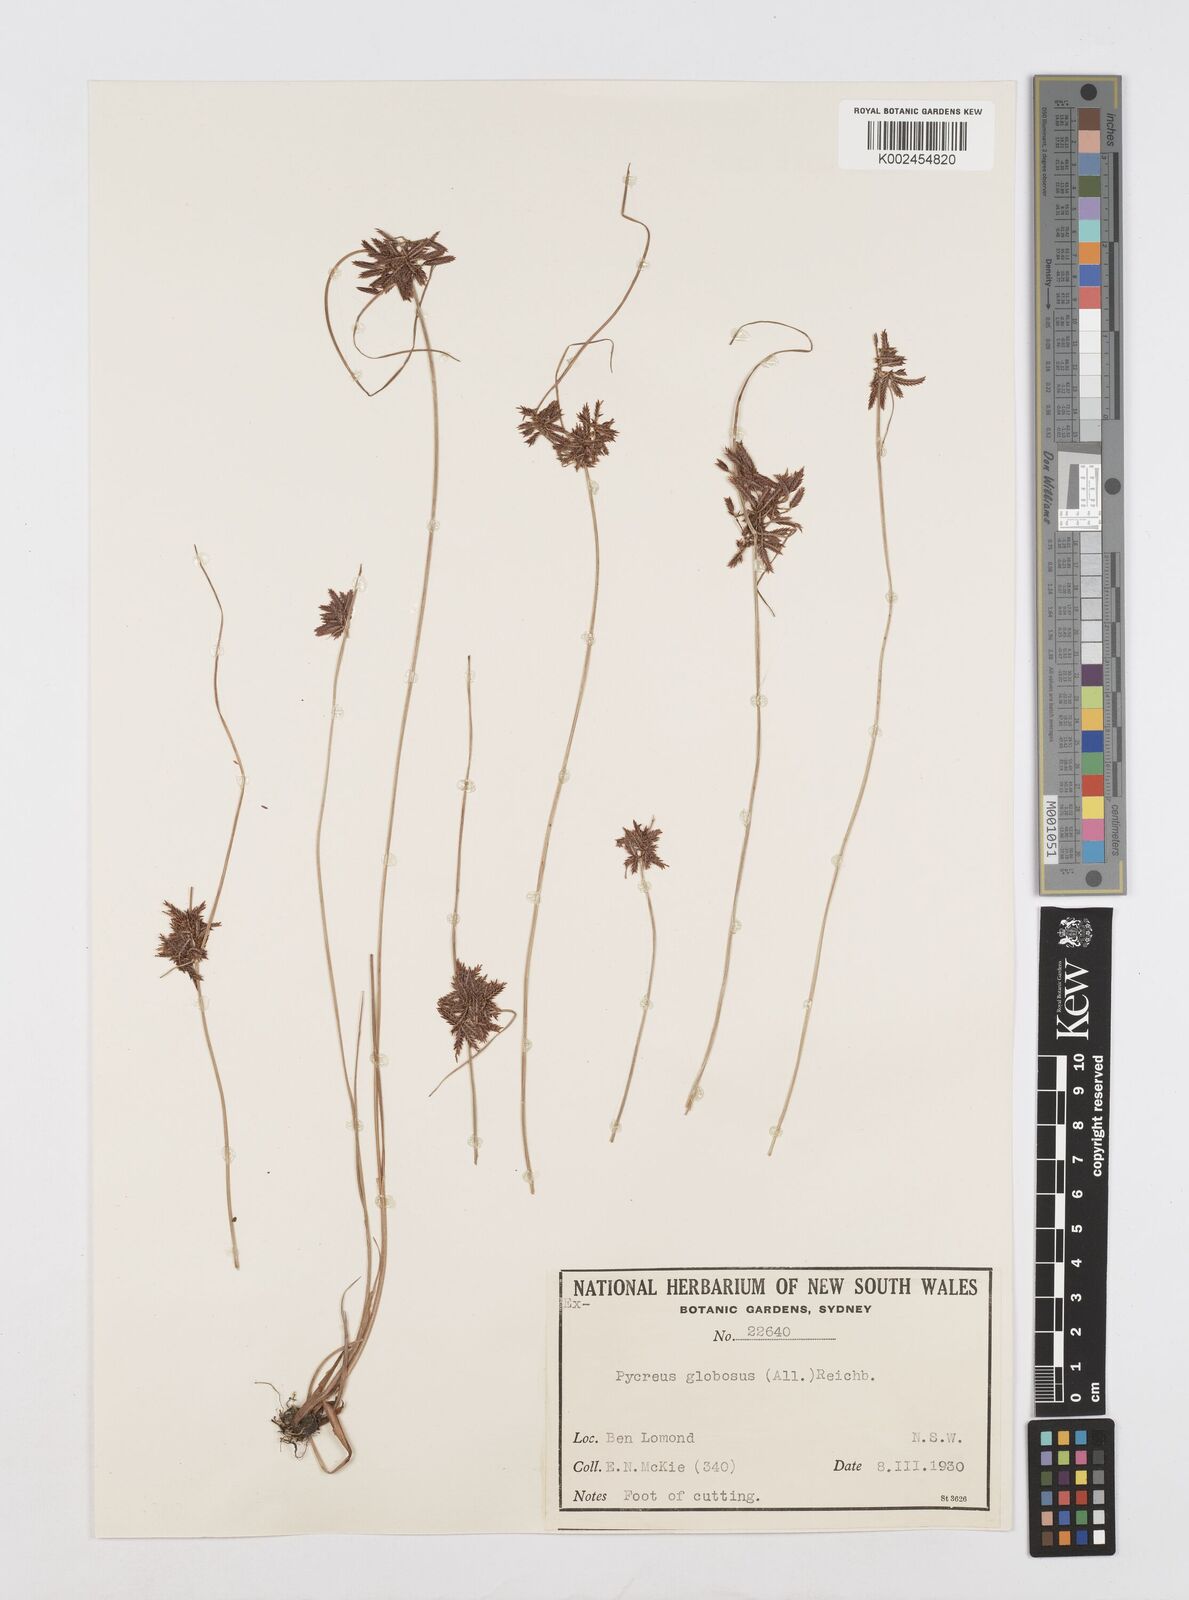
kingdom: Plantae
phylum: Tracheophyta
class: Liliopsida
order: Poales
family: Cyperaceae
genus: Cyperus
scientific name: Cyperus flavidus
